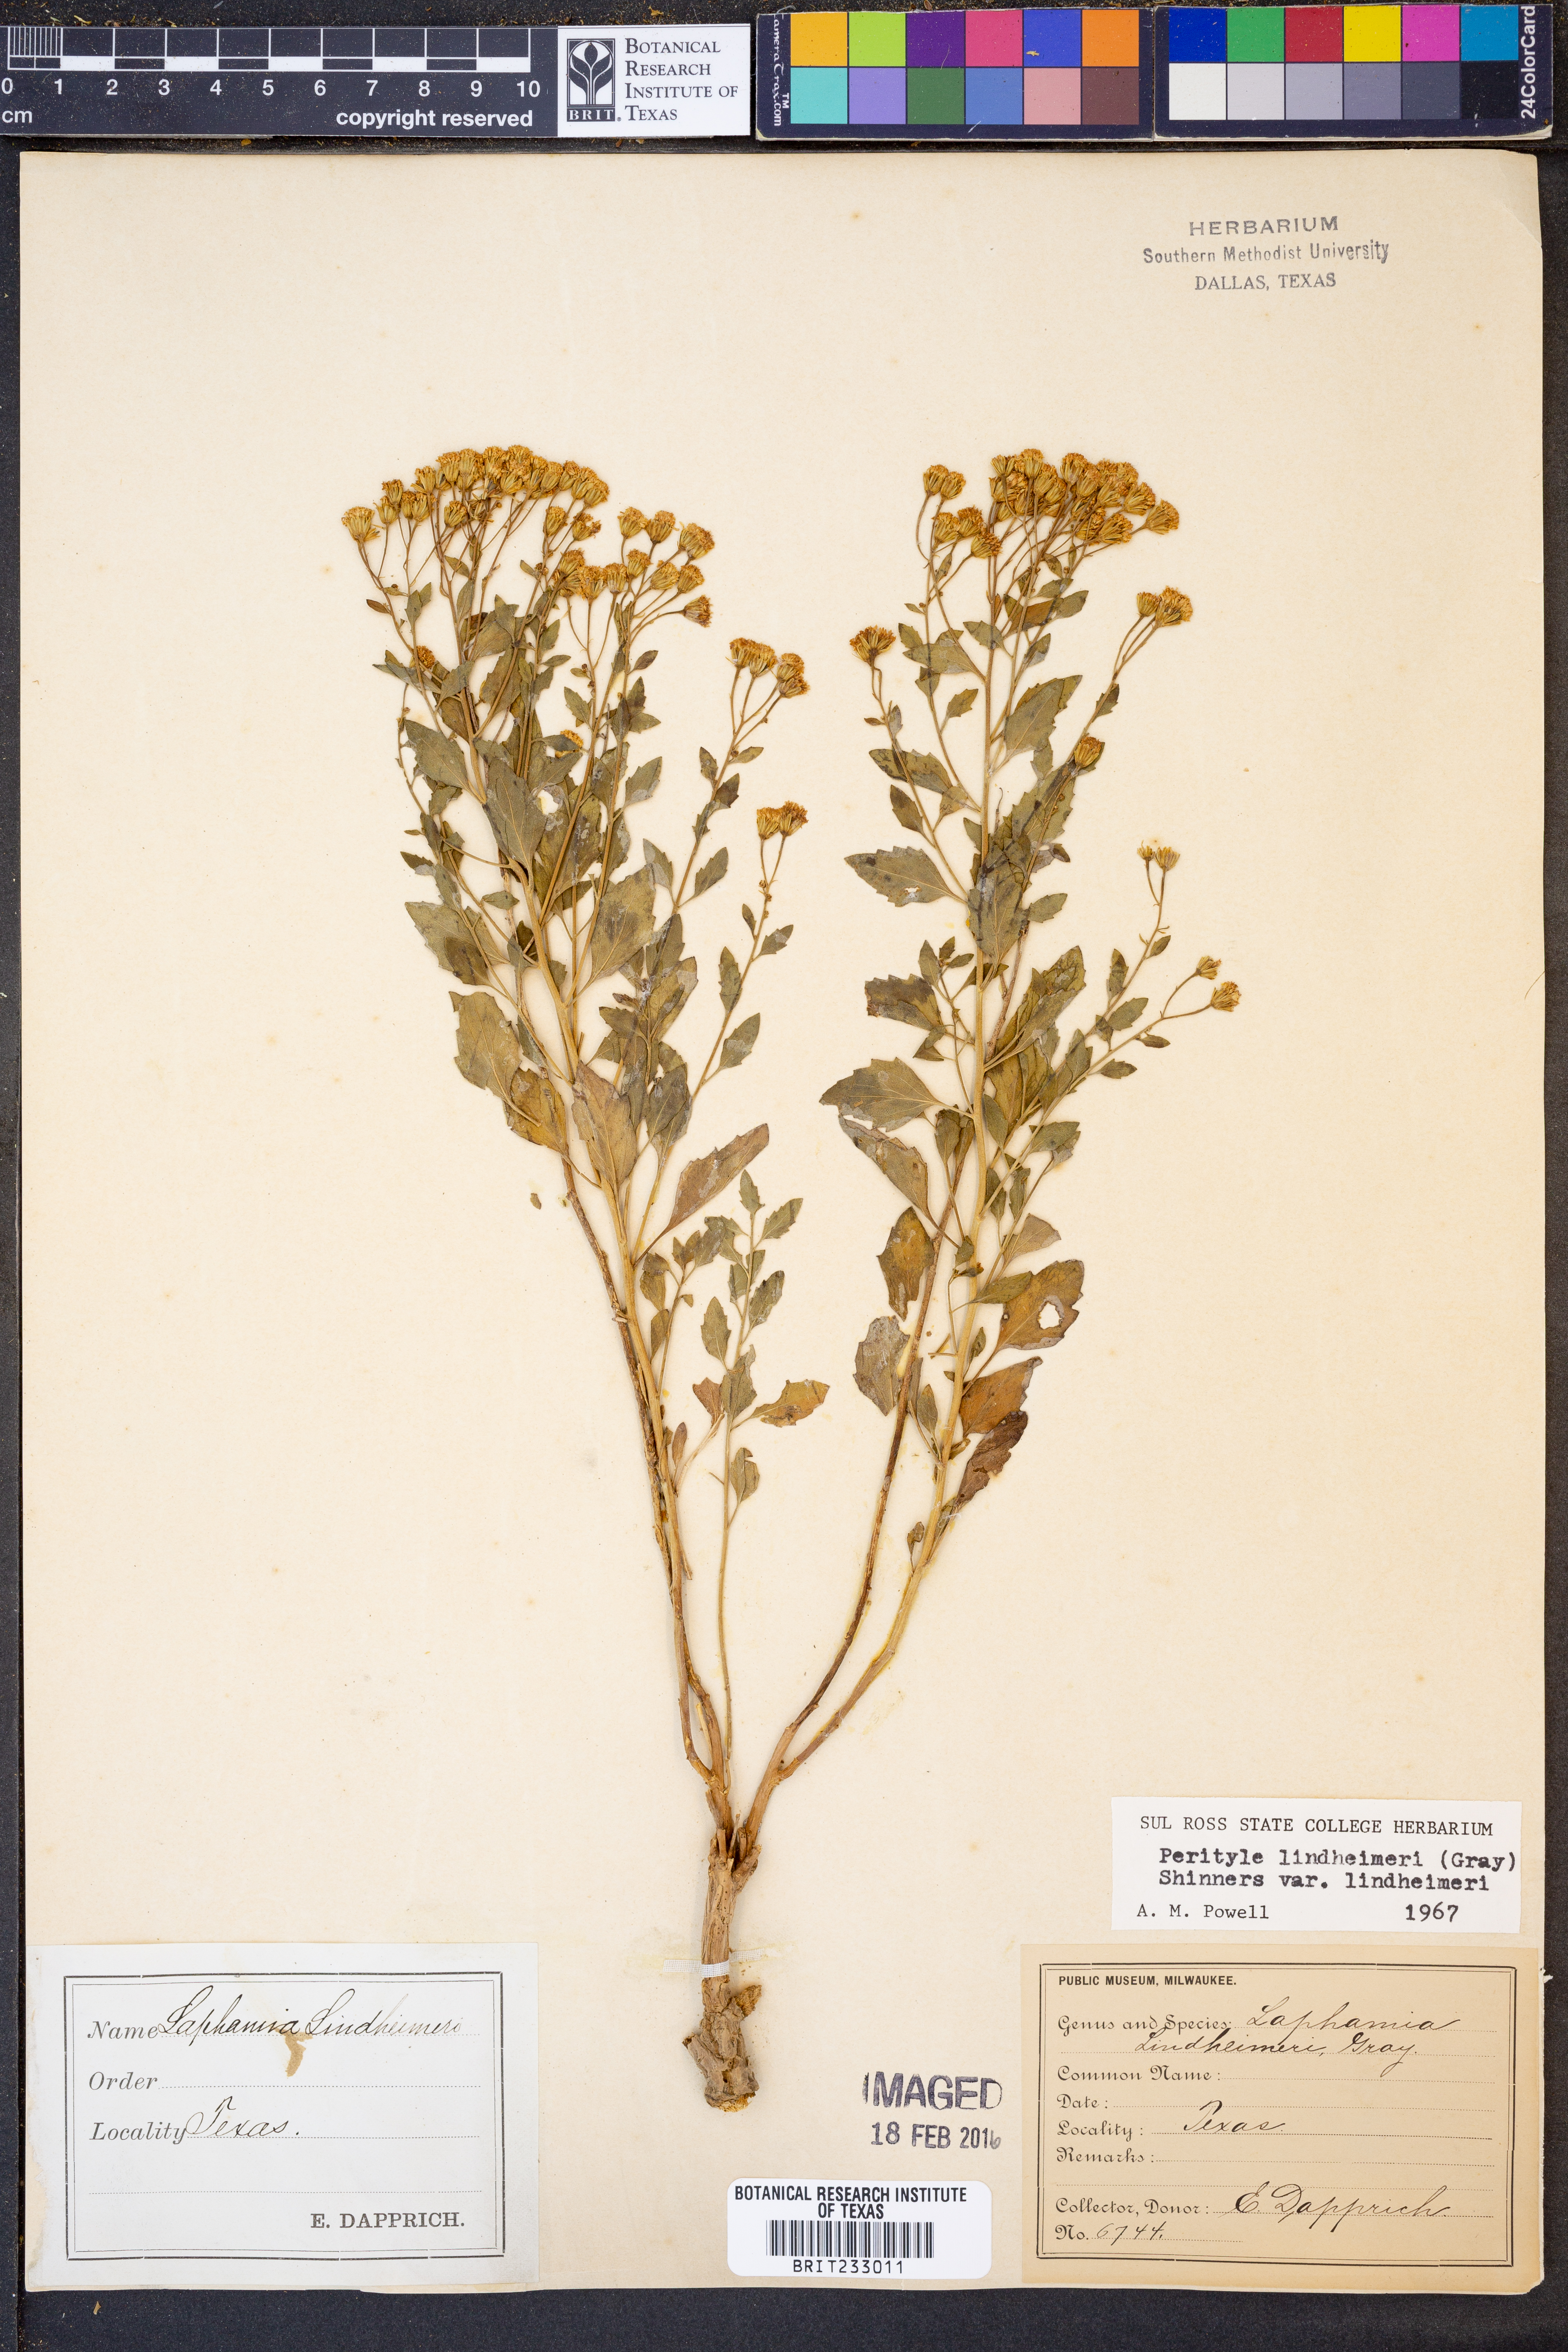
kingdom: Plantae
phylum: Tracheophyta
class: Magnoliopsida
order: Asterales
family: Asteraceae
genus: Laphamia
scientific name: Laphamia lindheimeri
